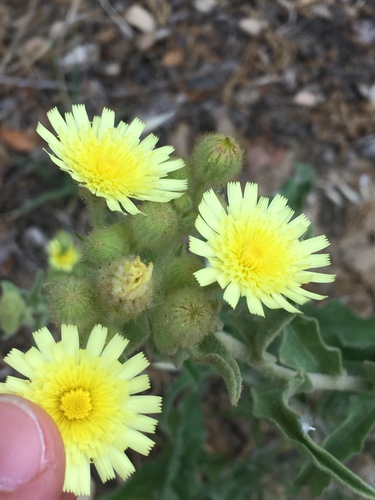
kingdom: Plantae
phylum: Tracheophyta
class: Magnoliopsida
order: Asterales
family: Asteraceae
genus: Andryala
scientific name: Andryala integrifolia
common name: Common andryala
